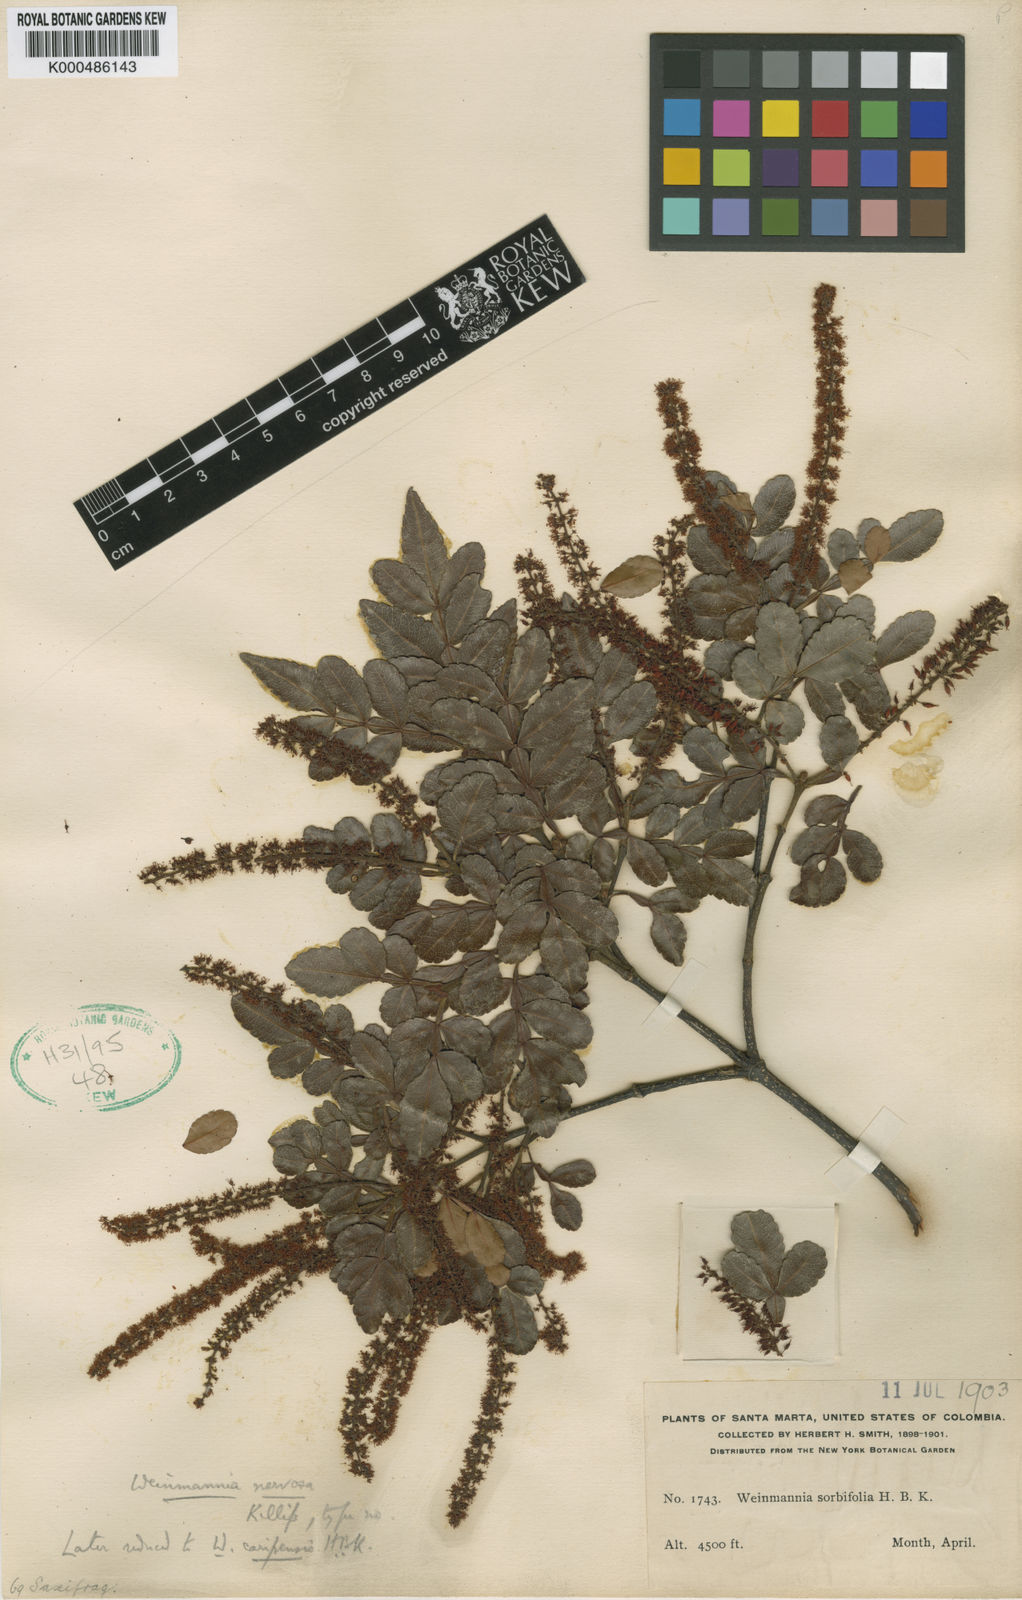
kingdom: Plantae
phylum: Tracheophyta
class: Magnoliopsida
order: Oxalidales
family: Cunoniaceae
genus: Weinmannia
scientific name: Weinmannia pinnata
